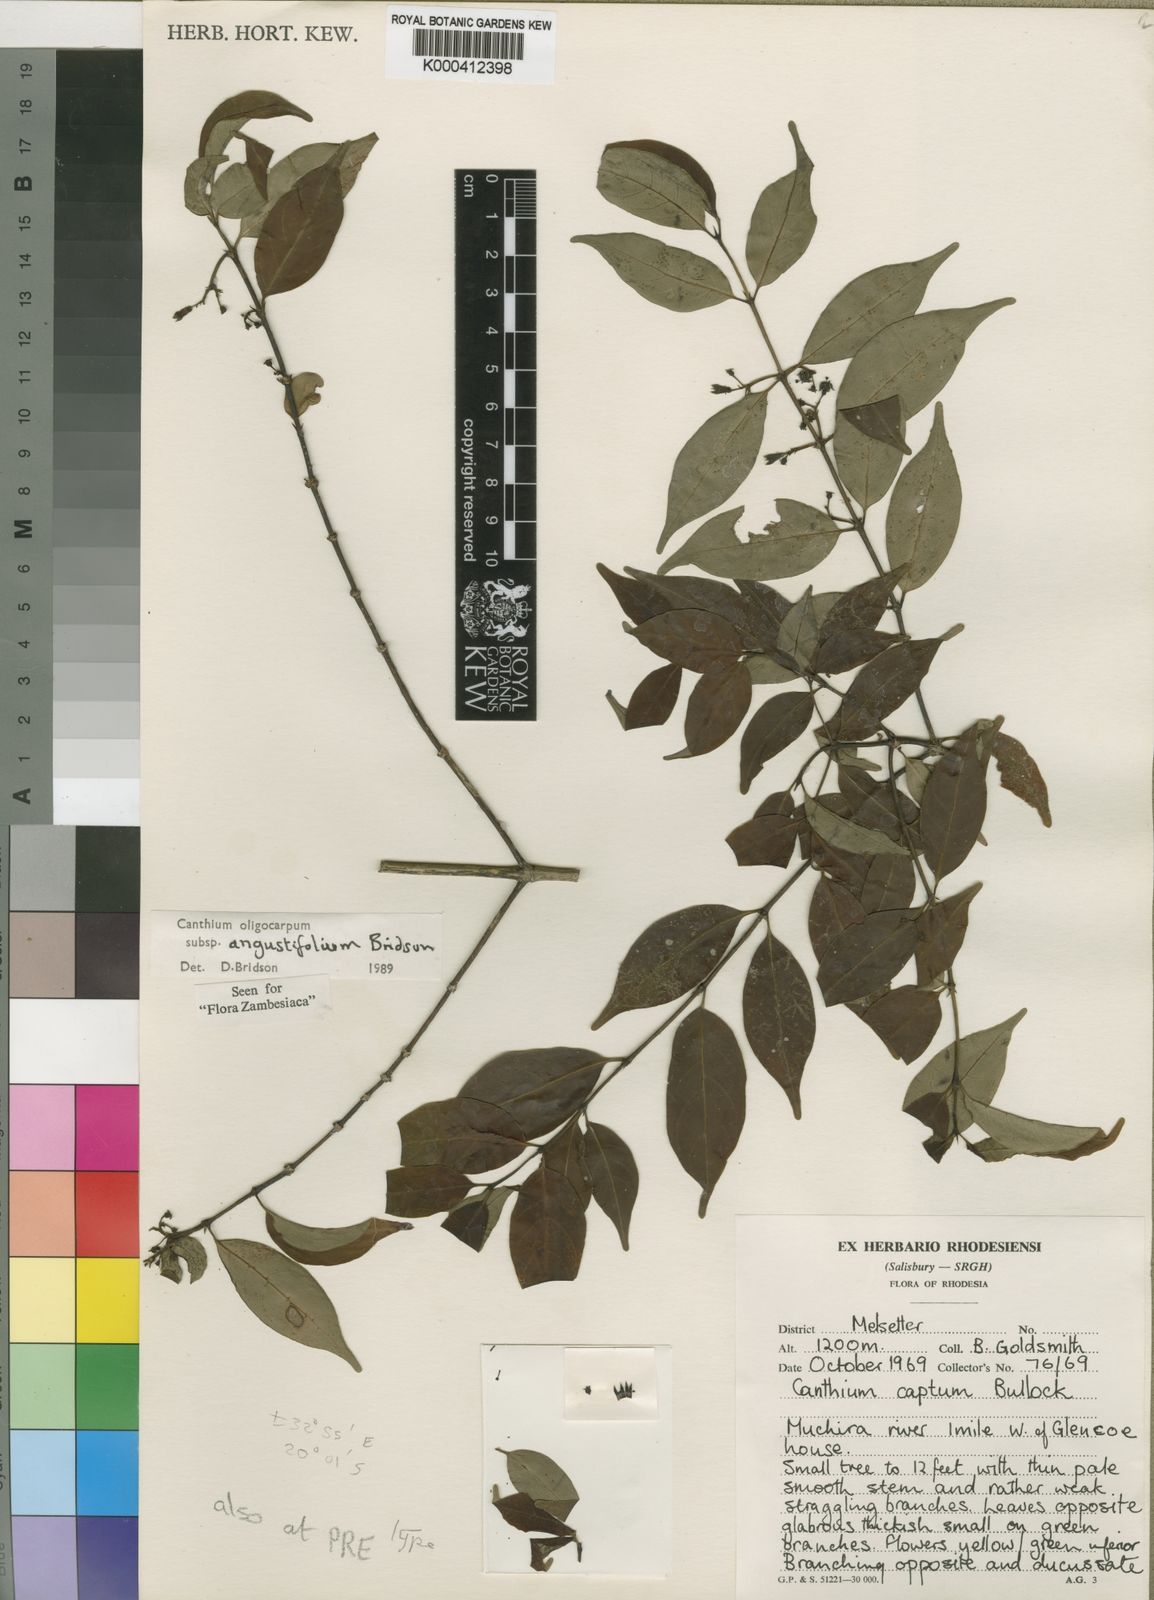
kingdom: Plantae
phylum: Tracheophyta
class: Magnoliopsida
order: Gentianales
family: Rubiaceae
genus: Canthium
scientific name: Canthium oligocarpum
